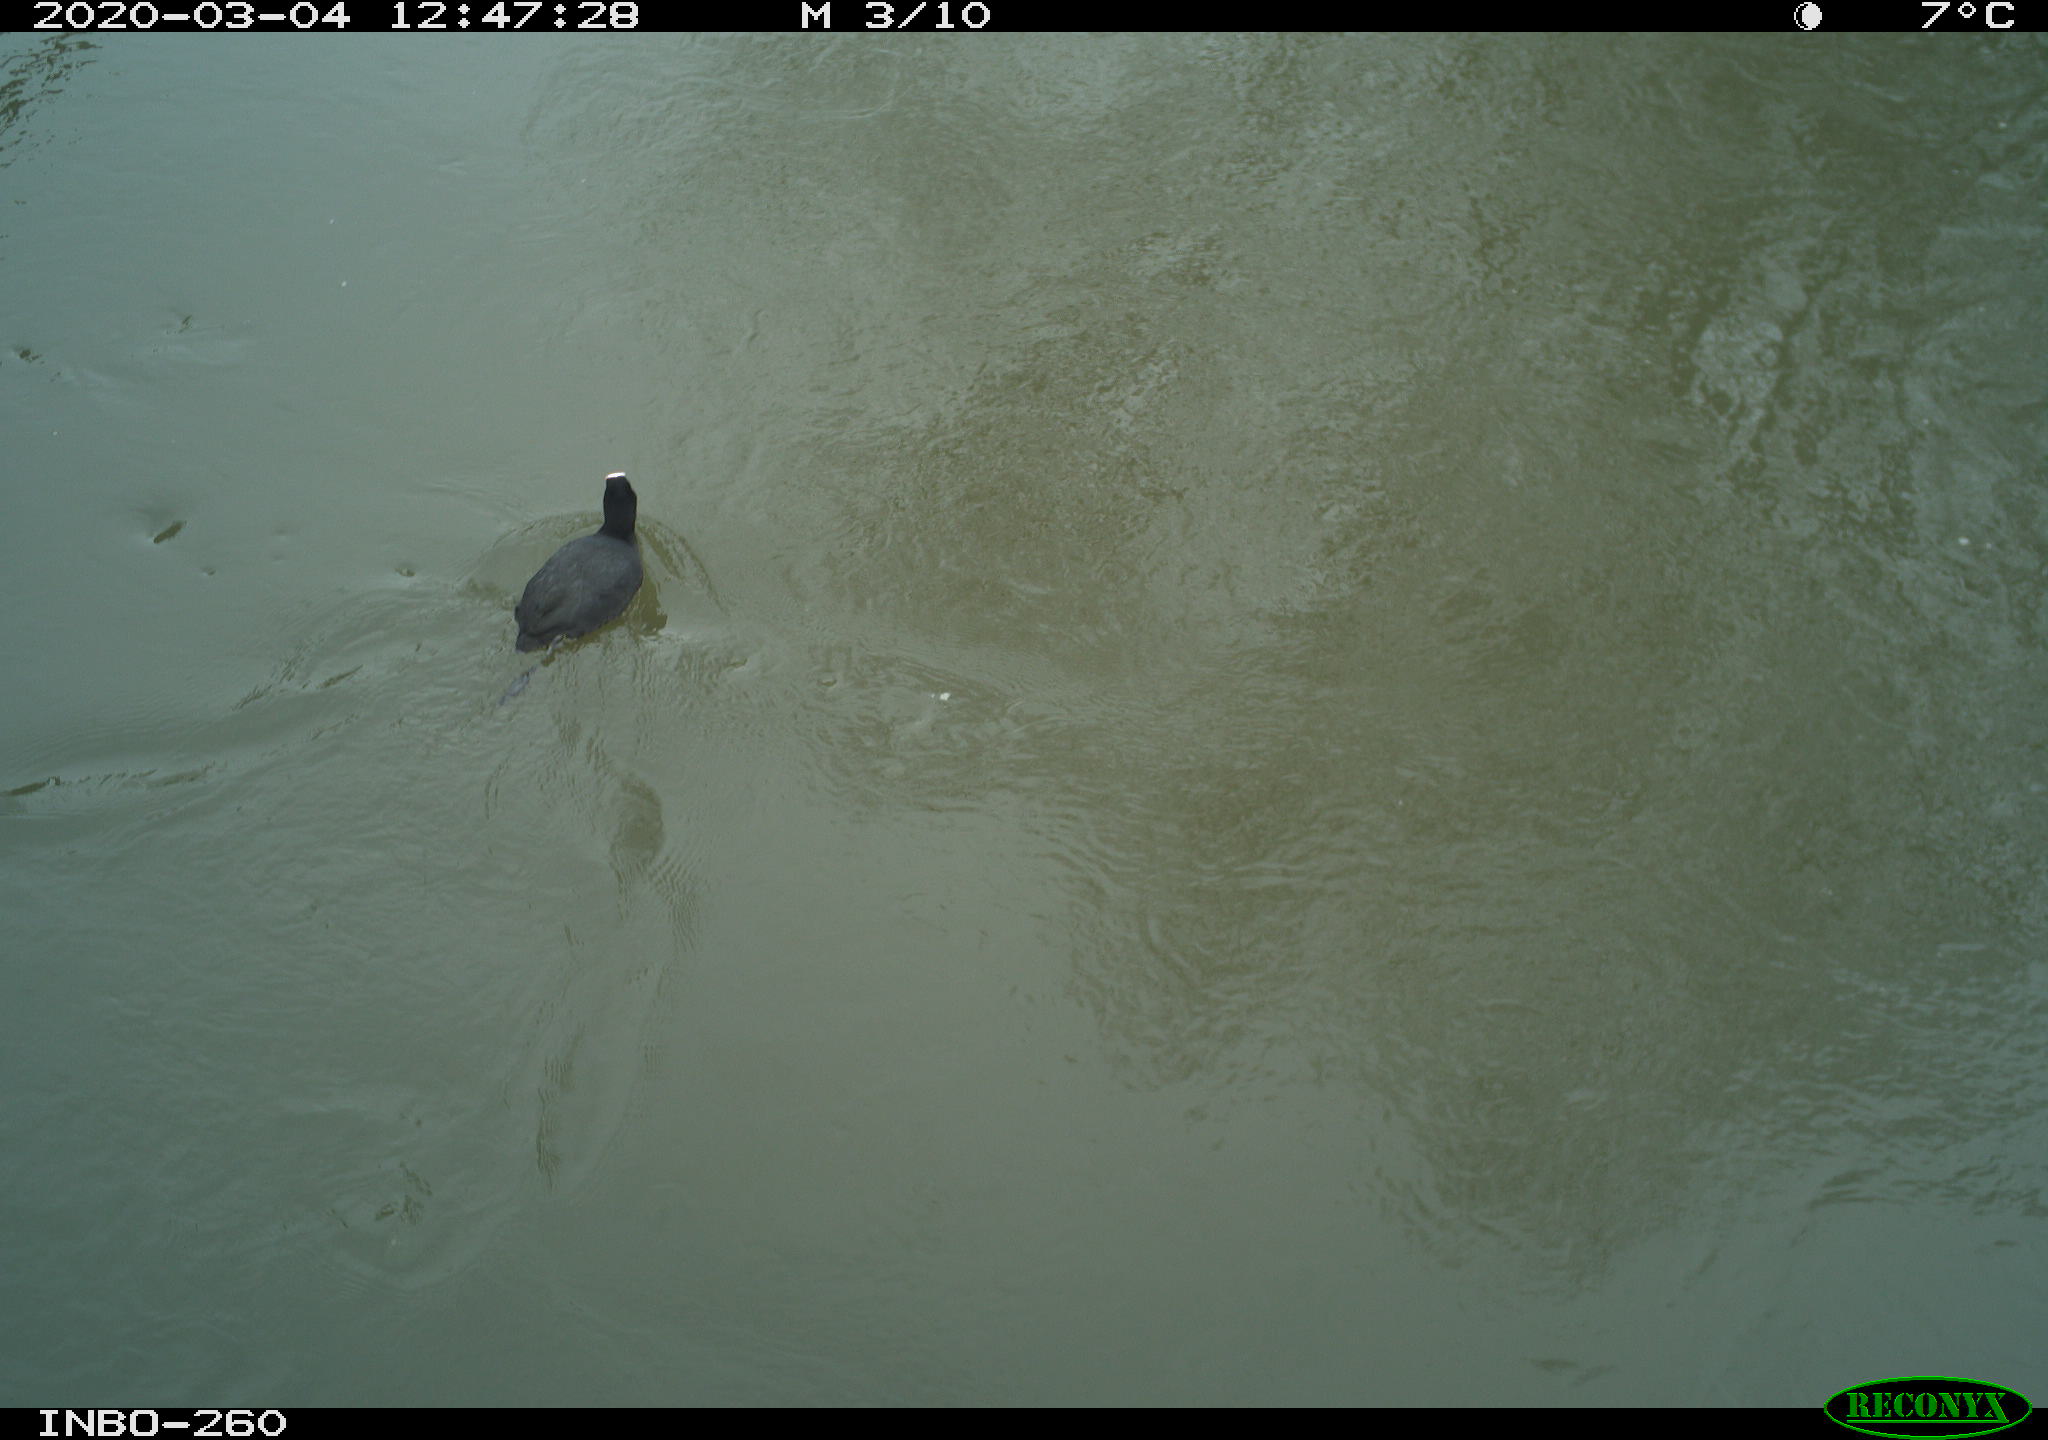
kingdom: Animalia
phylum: Chordata
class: Aves
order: Gruiformes
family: Rallidae
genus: Fulica
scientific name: Fulica atra
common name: Eurasian coot
